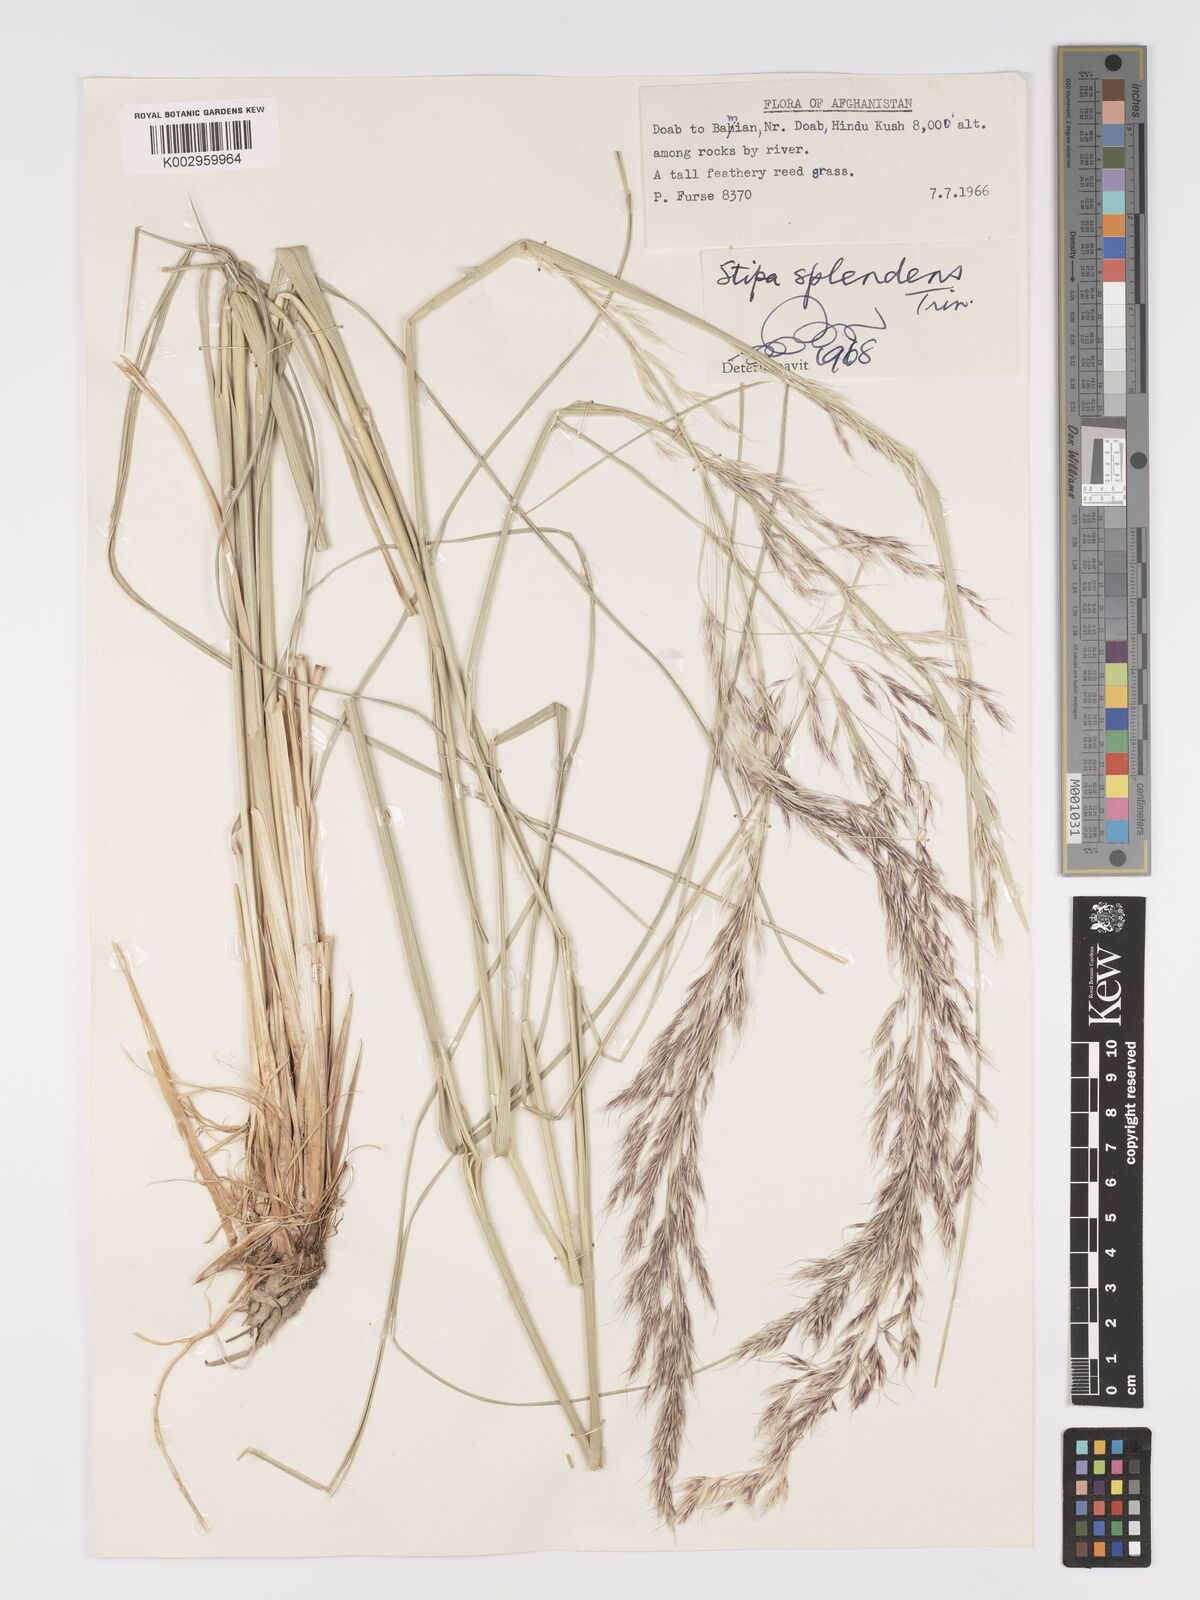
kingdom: Plantae
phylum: Tracheophyta
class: Liliopsida
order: Poales
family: Poaceae
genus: Neotrinia
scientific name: Neotrinia splendens
